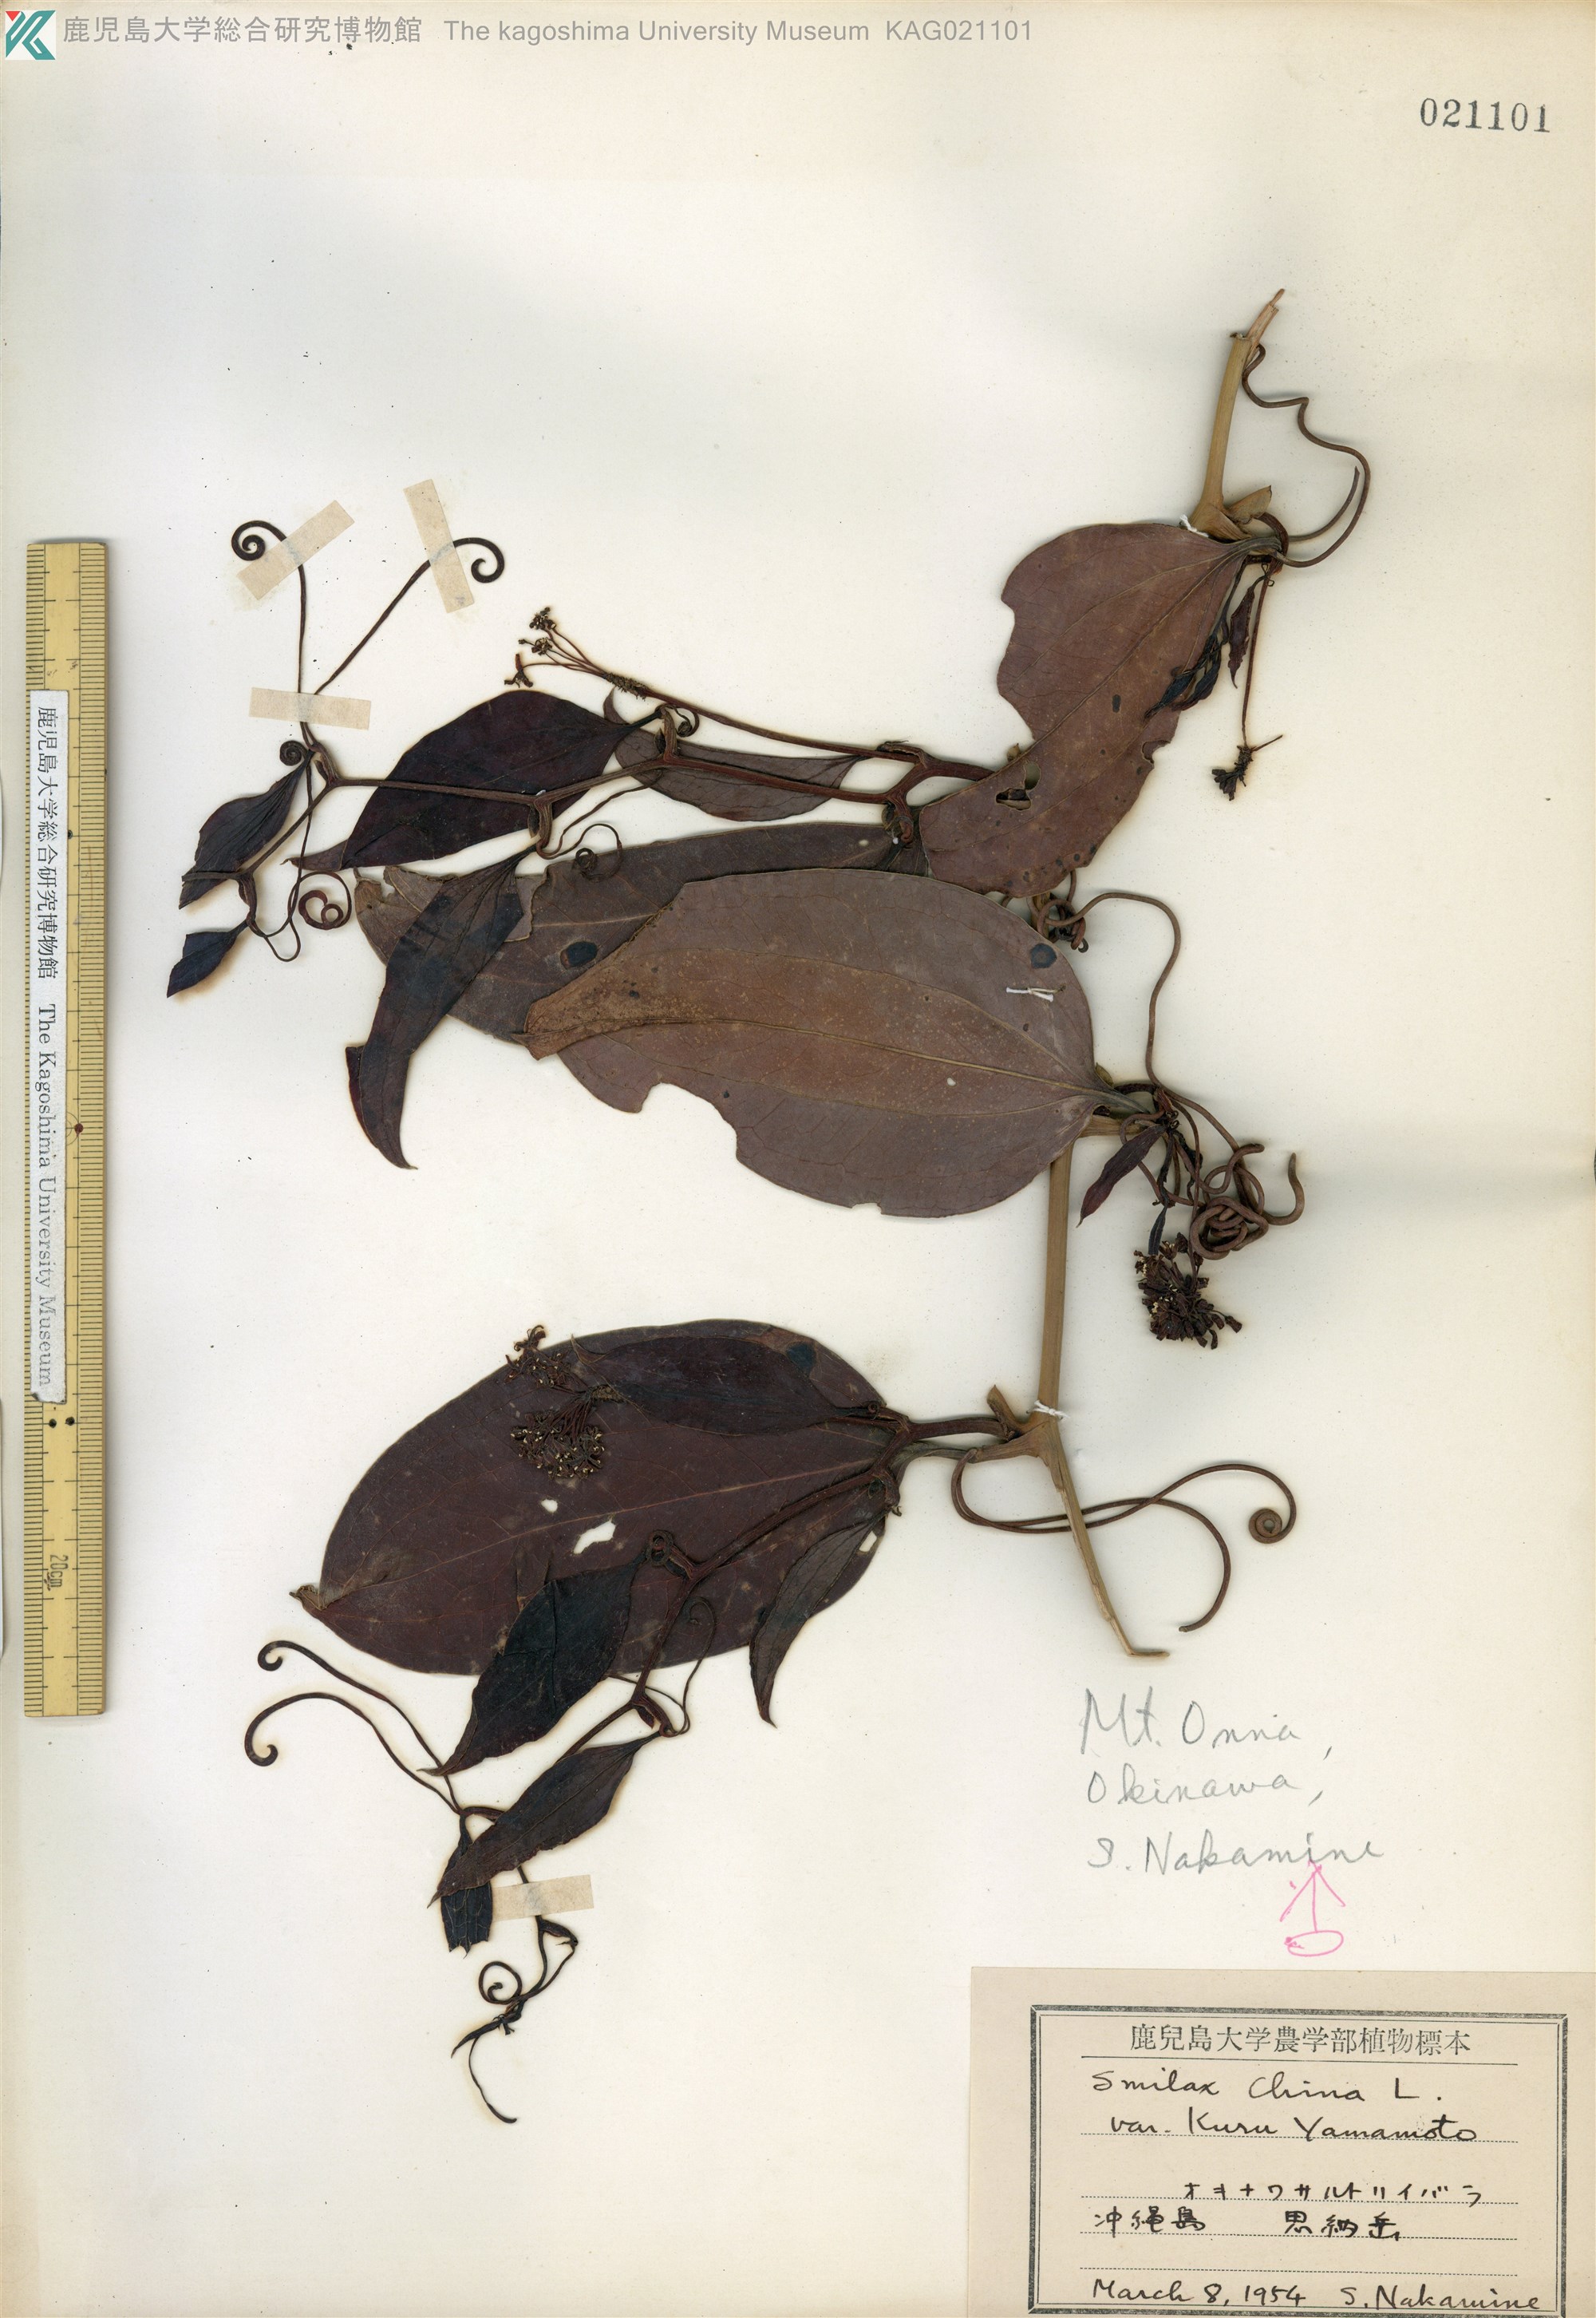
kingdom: Plantae
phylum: Tracheophyta
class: Liliopsida
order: Liliales
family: Smilacaceae
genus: Smilax
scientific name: Smilax china
